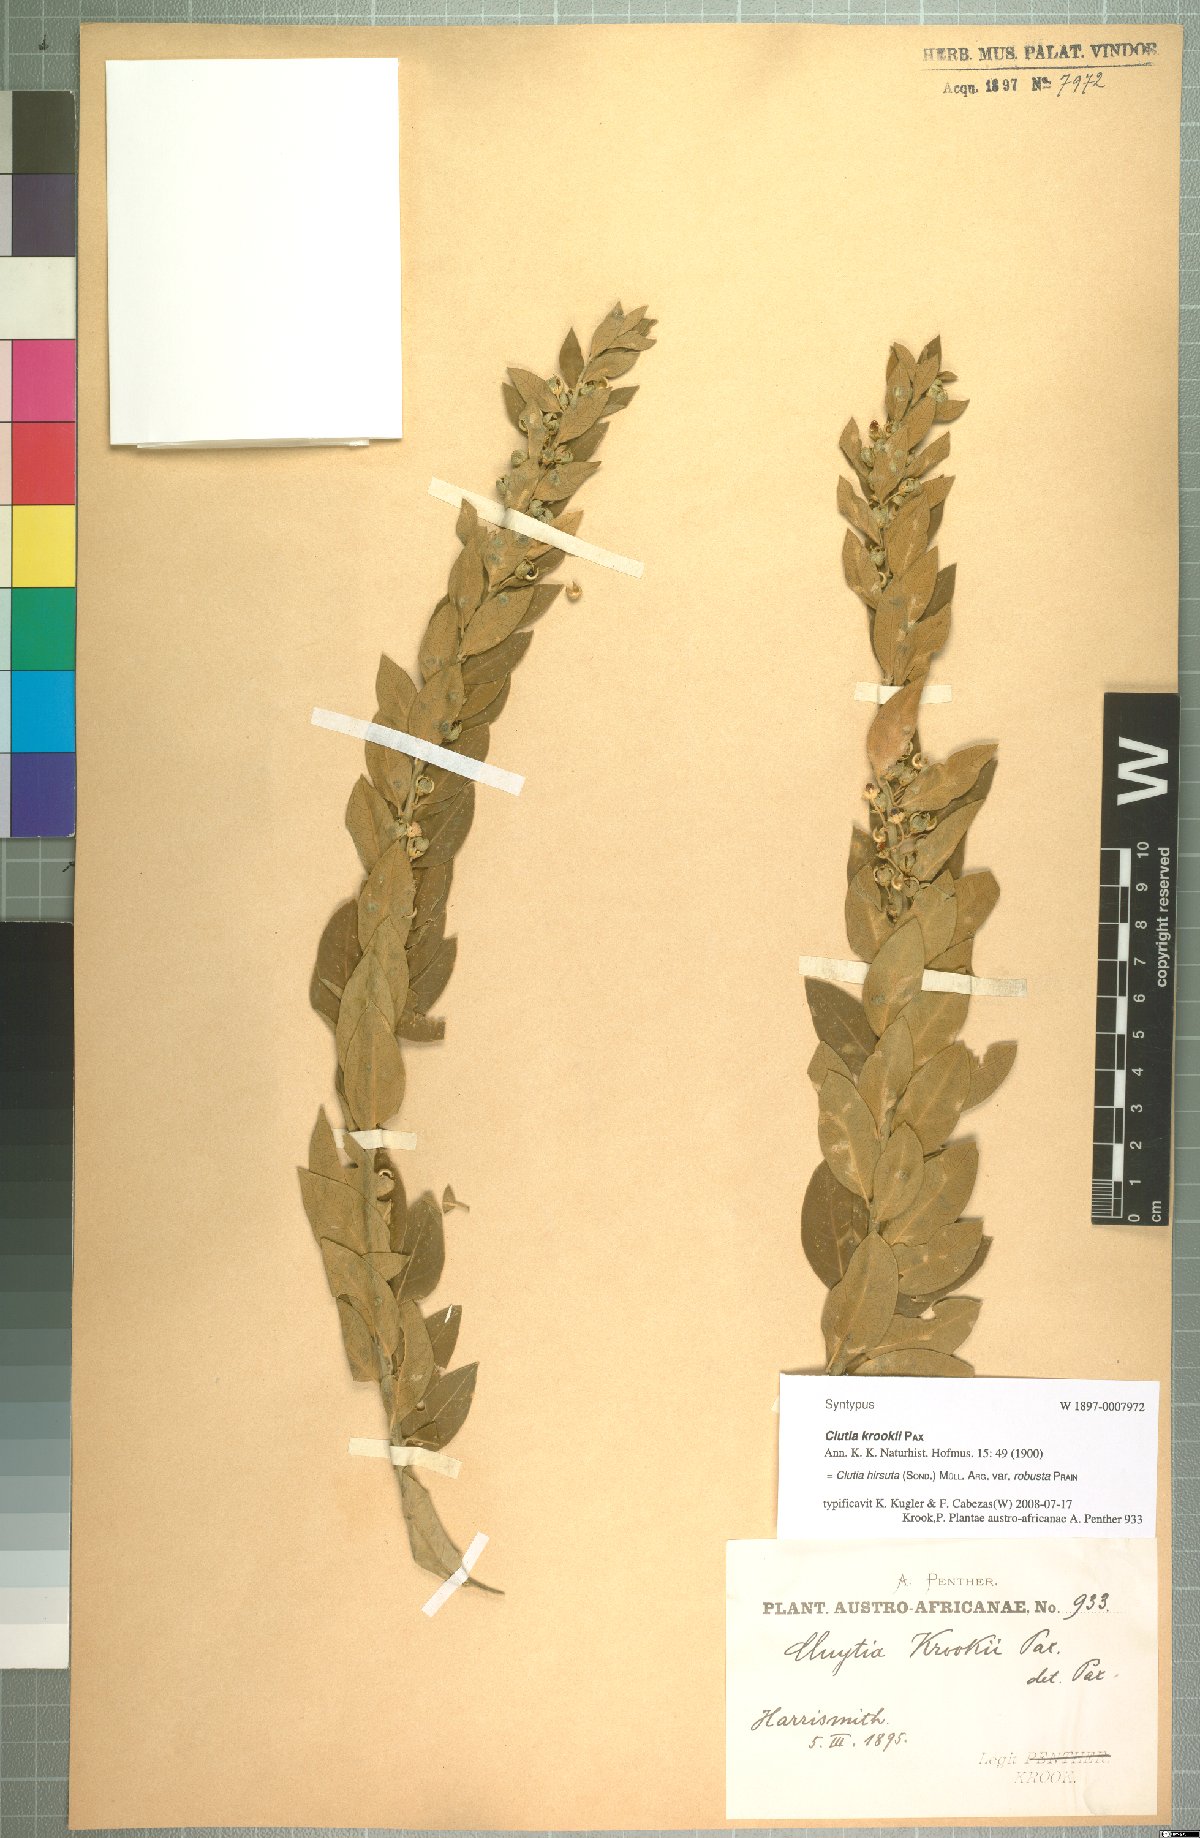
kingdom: Plantae
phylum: Tracheophyta
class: Magnoliopsida
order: Malpighiales
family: Peraceae
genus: Clutia
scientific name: Clutia hirsuta
